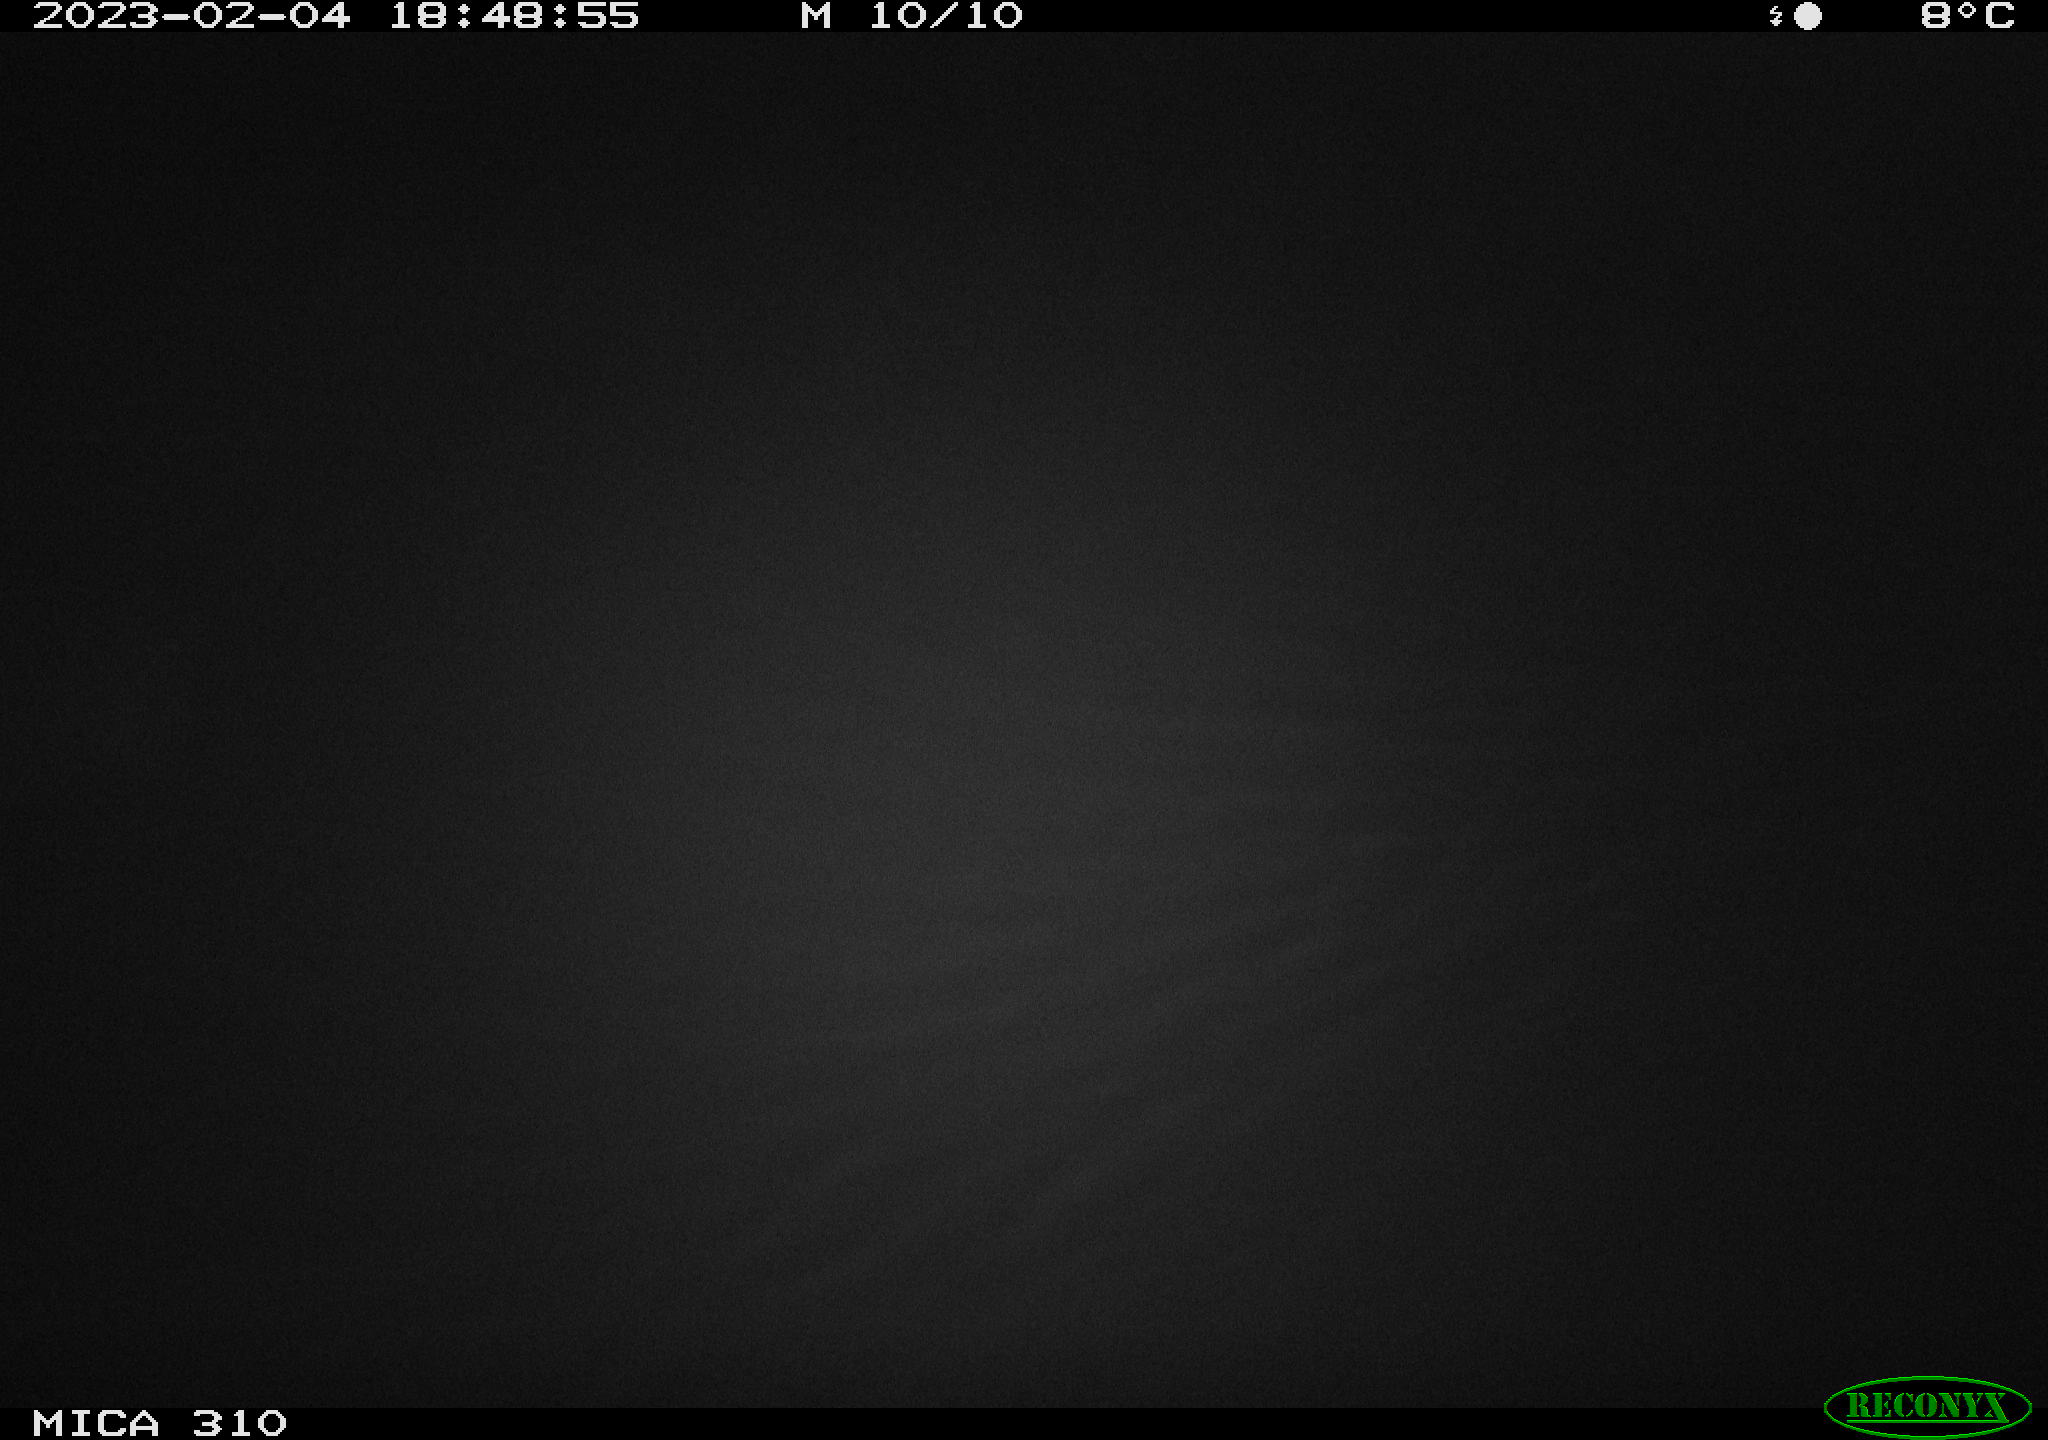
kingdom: Animalia
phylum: Chordata
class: Mammalia
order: Rodentia
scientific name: Rodentia
